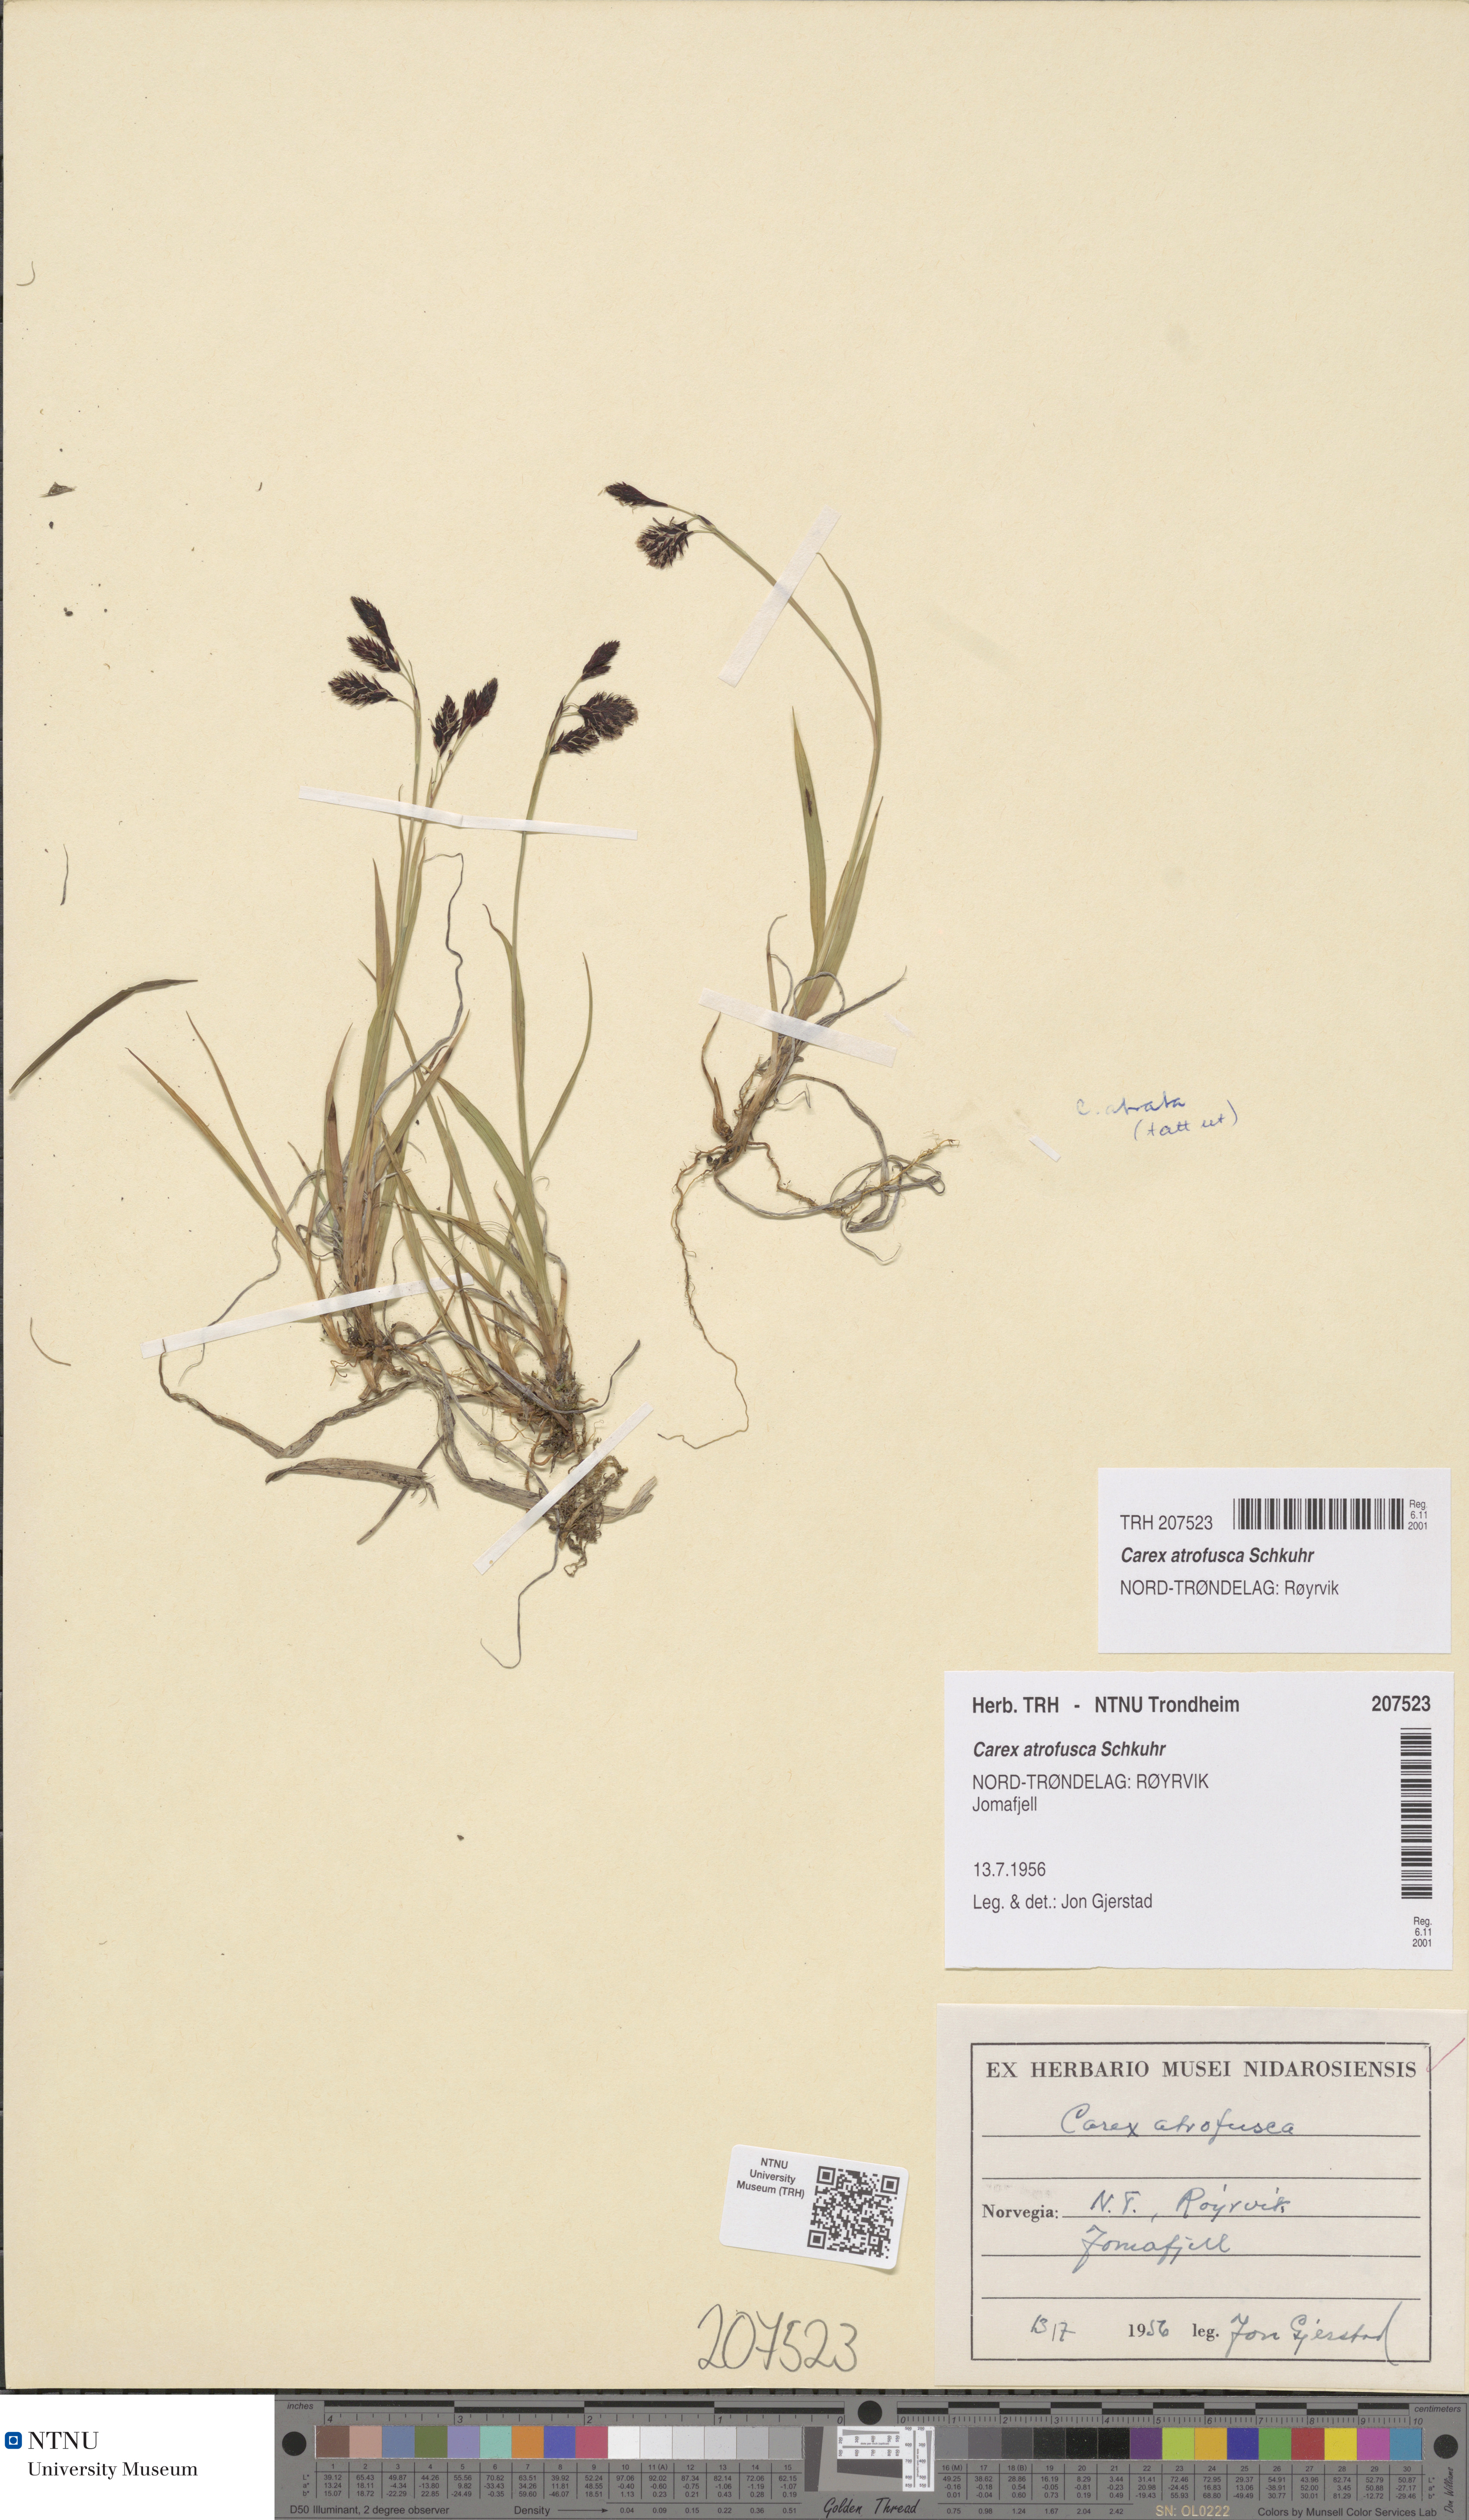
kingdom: Plantae
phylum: Tracheophyta
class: Liliopsida
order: Poales
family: Cyperaceae
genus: Carex
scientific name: Carex atrofusca
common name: Scorched alpine-sedge
